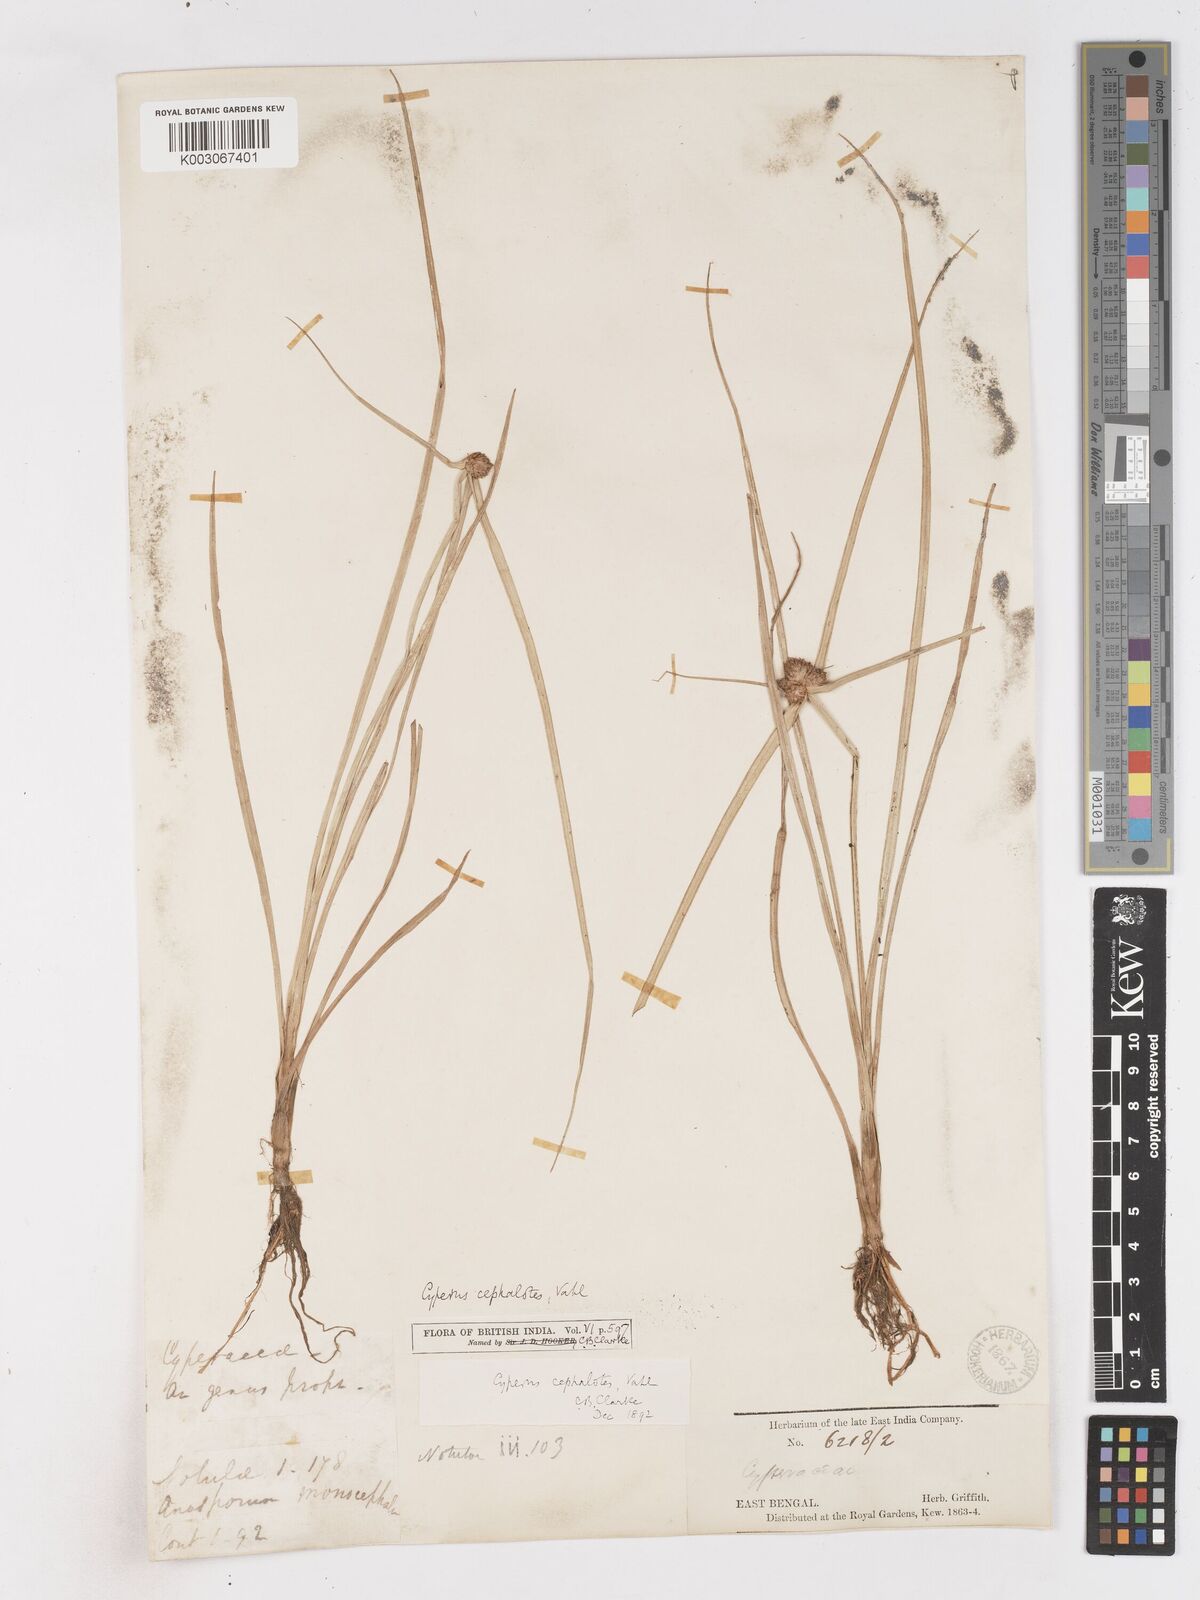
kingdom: Plantae
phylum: Tracheophyta
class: Liliopsida
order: Poales
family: Cyperaceae
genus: Cyperus
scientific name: Cyperus cephalotes
